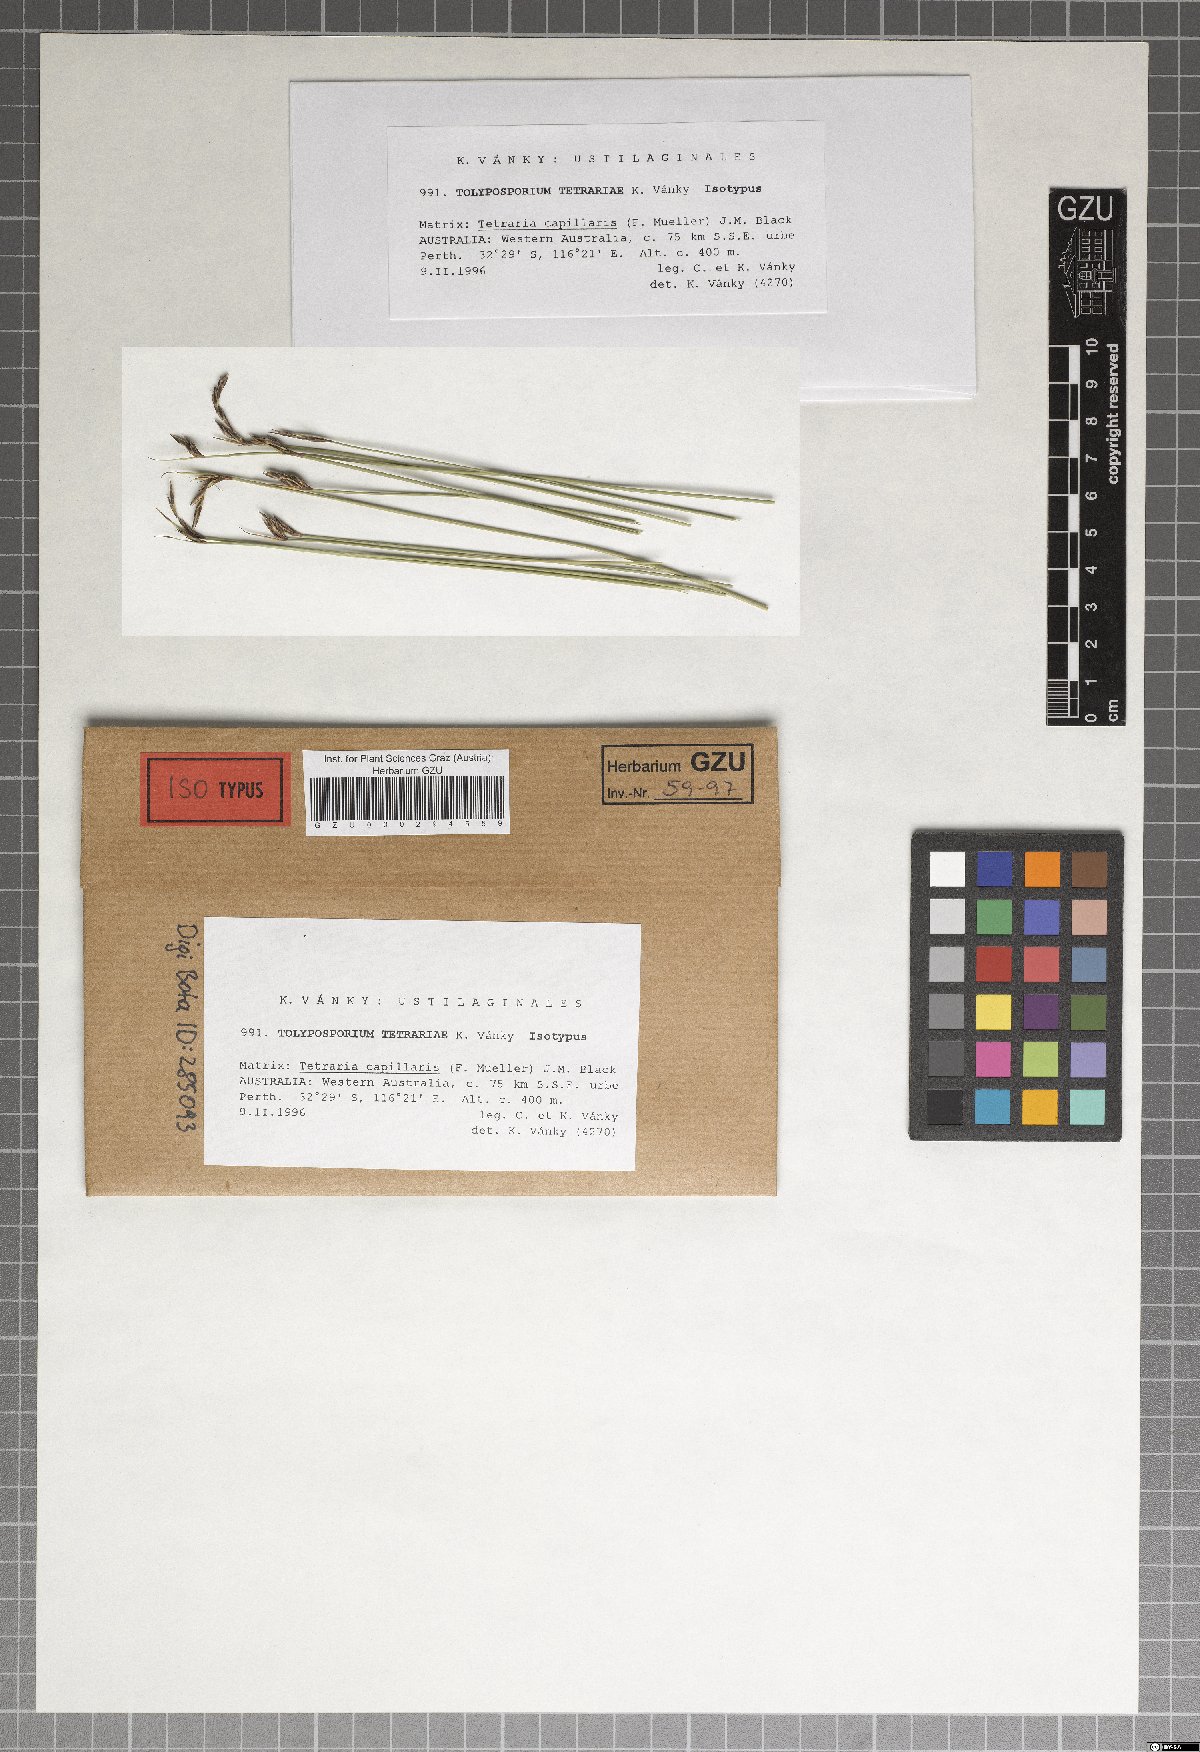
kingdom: Fungi
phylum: Basidiomycota
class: Ustilaginomycetes
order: Ustilaginales
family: Anthracoideaceae
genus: Moreaua
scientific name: Moreaua tetrariae
